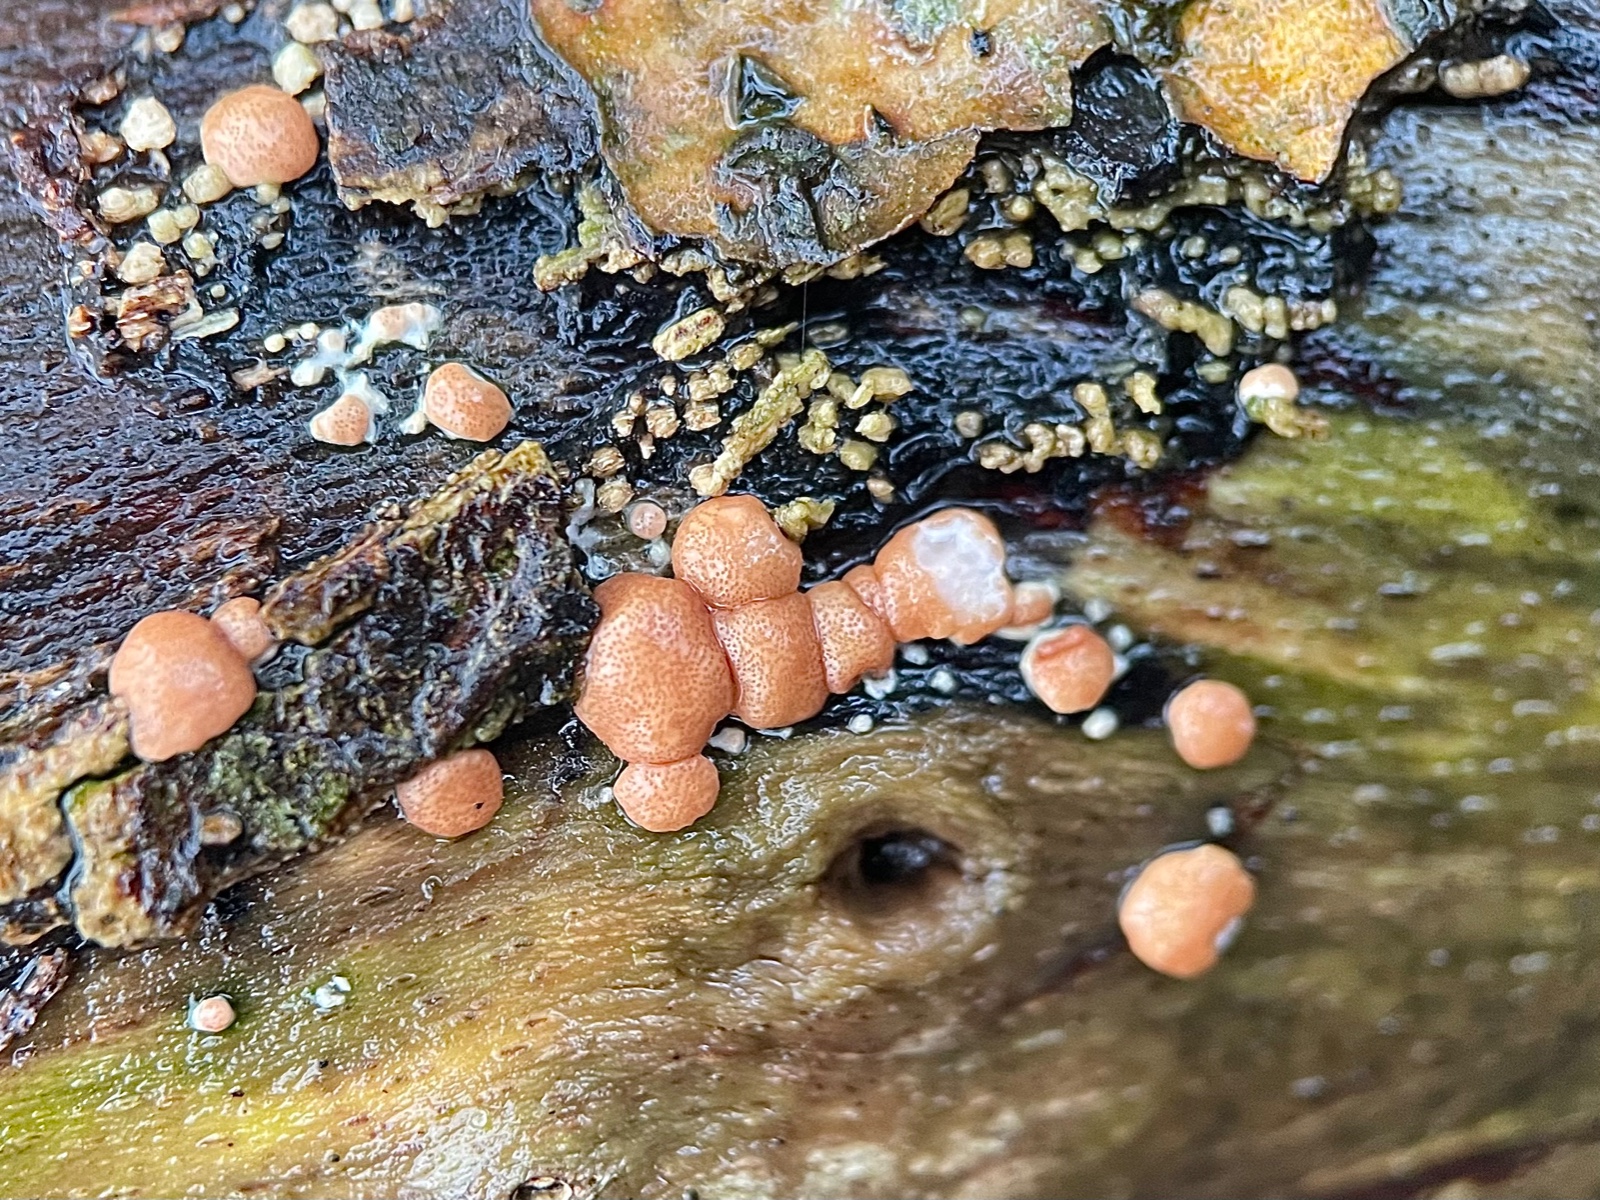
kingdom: Fungi
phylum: Ascomycota
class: Sordariomycetes
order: Hypocreales
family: Hypocreaceae
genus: Trichoderma
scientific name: Trichoderma europaeum
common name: rosabrun kødkerne
